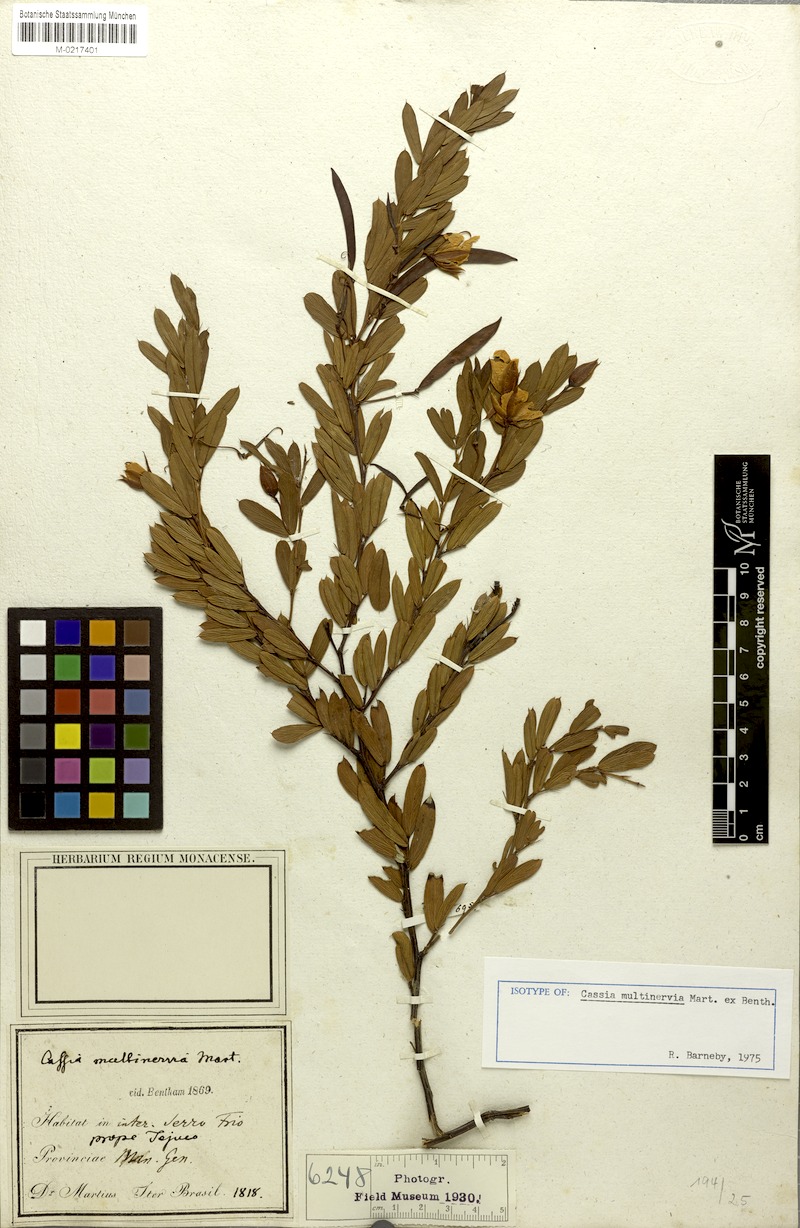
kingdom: Plantae
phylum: Tracheophyta
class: Magnoliopsida
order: Fabales
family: Fabaceae
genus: Chamaecrista
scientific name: Chamaecrista multinervia
